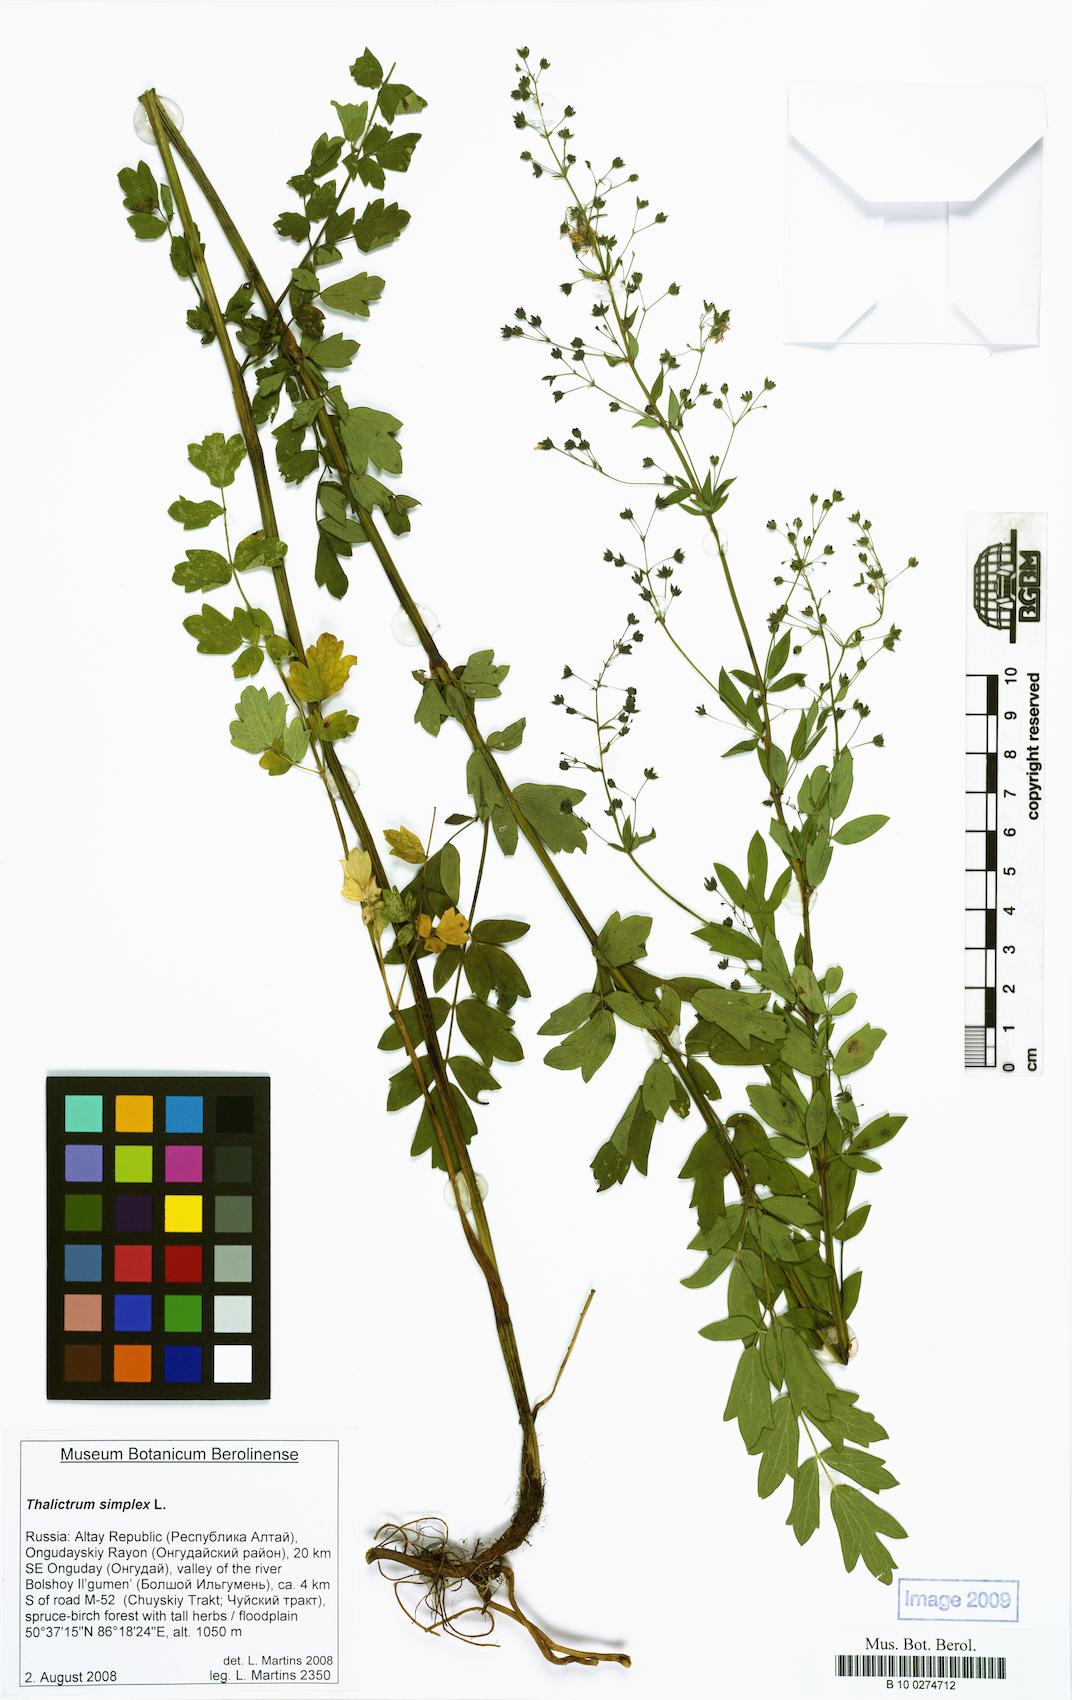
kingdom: Plantae
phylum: Tracheophyta
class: Magnoliopsida
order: Ranunculales
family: Ranunculaceae
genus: Thalictrum
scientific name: Thalictrum simplex
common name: Small meadow-rue
